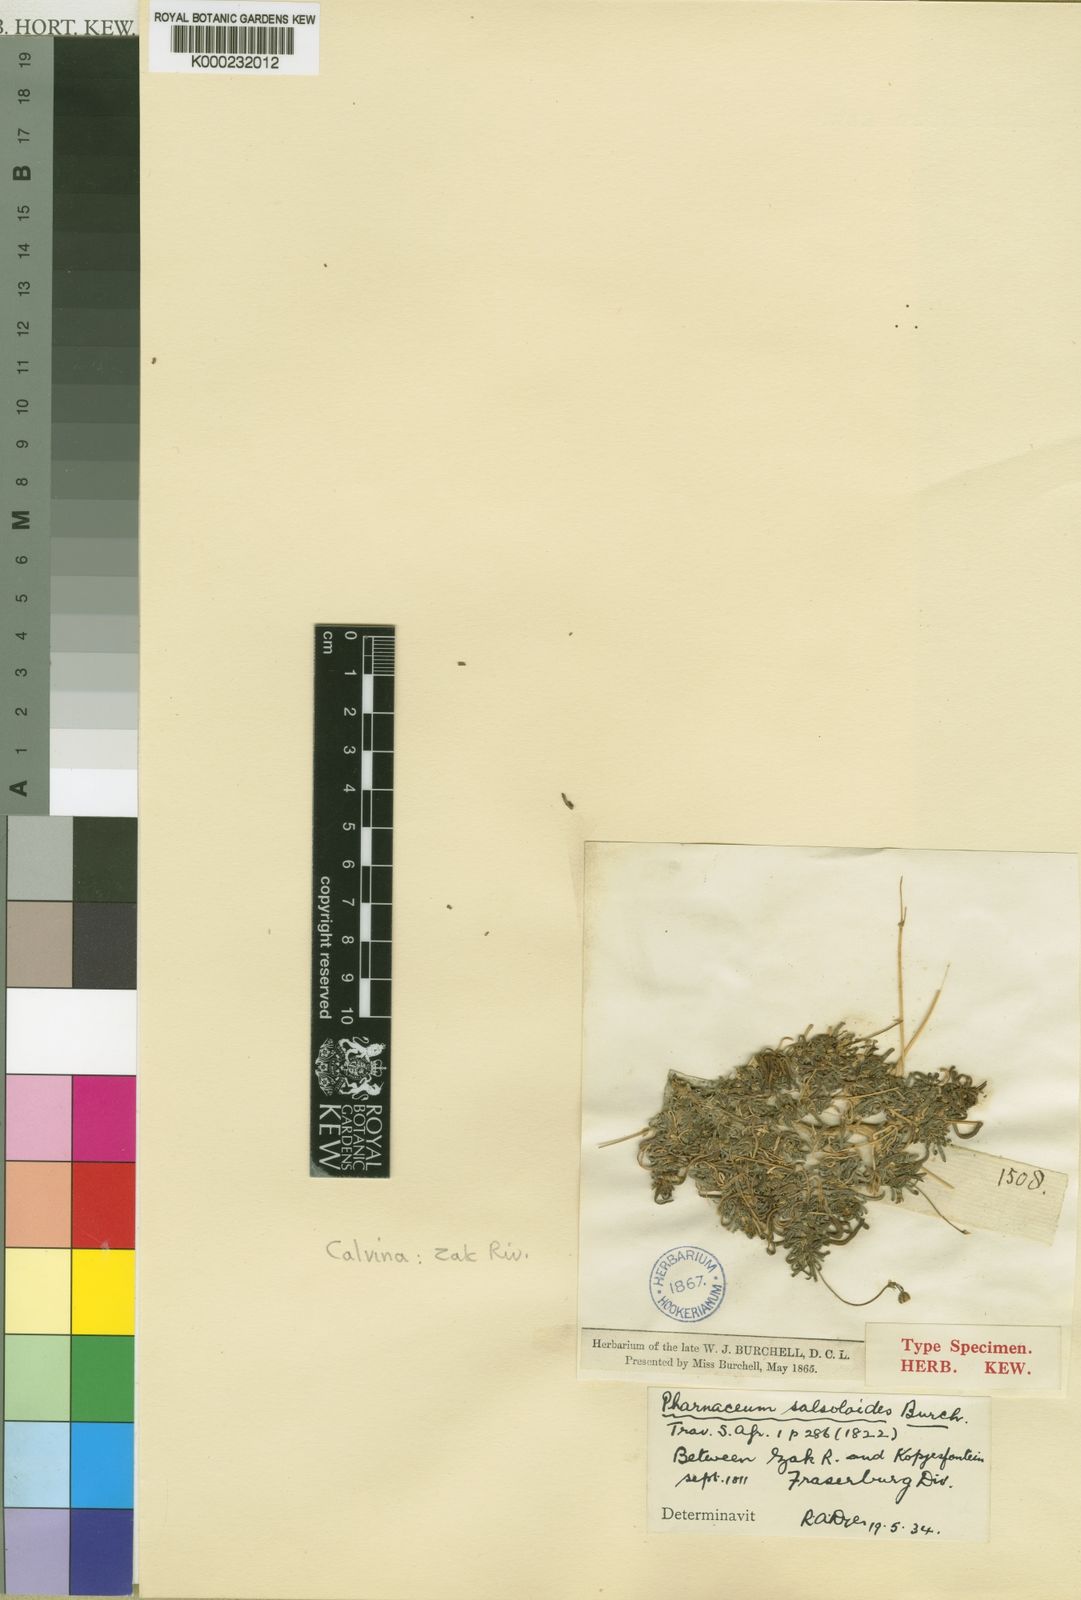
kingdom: Plantae
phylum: Tracheophyta
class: Magnoliopsida
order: Caryophyllales
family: Molluginaceae
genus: Suessenguthiella
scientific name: Suessenguthiella
